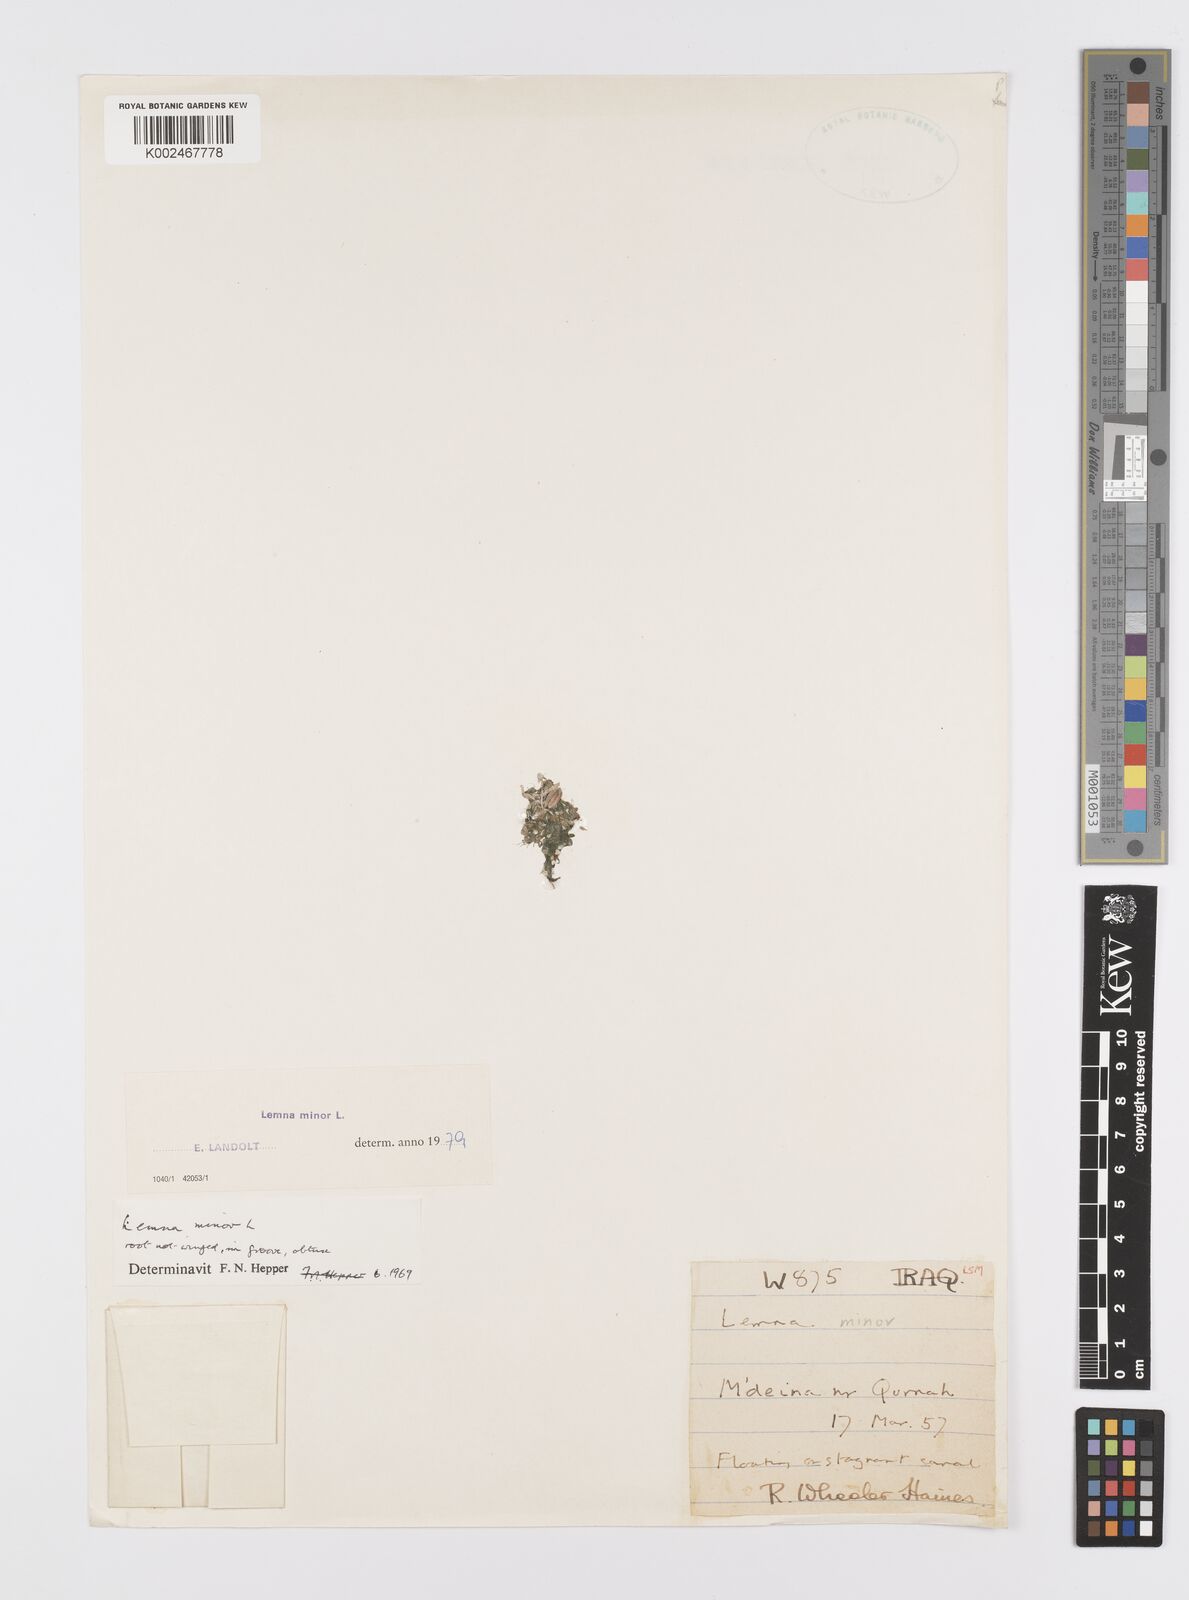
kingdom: Plantae
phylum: Tracheophyta
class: Liliopsida
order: Alismatales
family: Araceae
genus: Lemna
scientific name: Lemna minor
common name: Common duckweed
